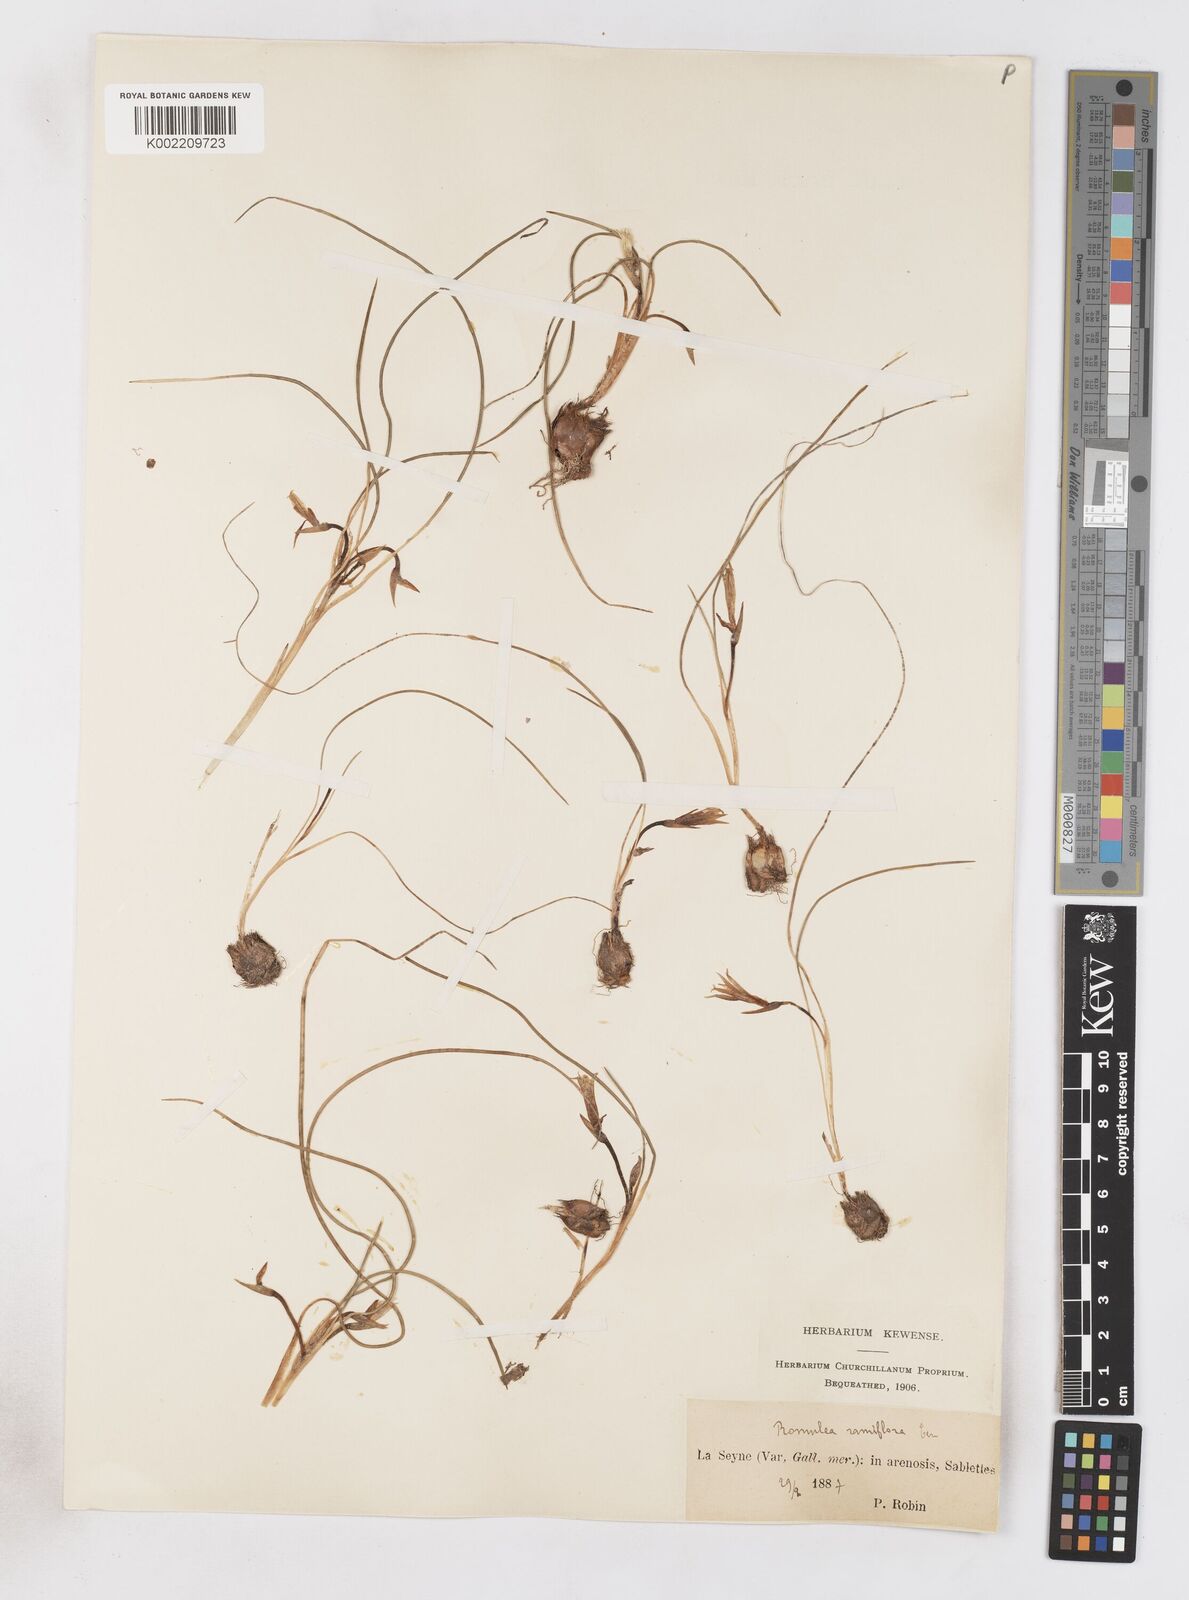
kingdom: Plantae
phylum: Tracheophyta
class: Liliopsida
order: Asparagales
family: Iridaceae
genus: Romulea
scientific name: Romulea columnae
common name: Sand-crocus
